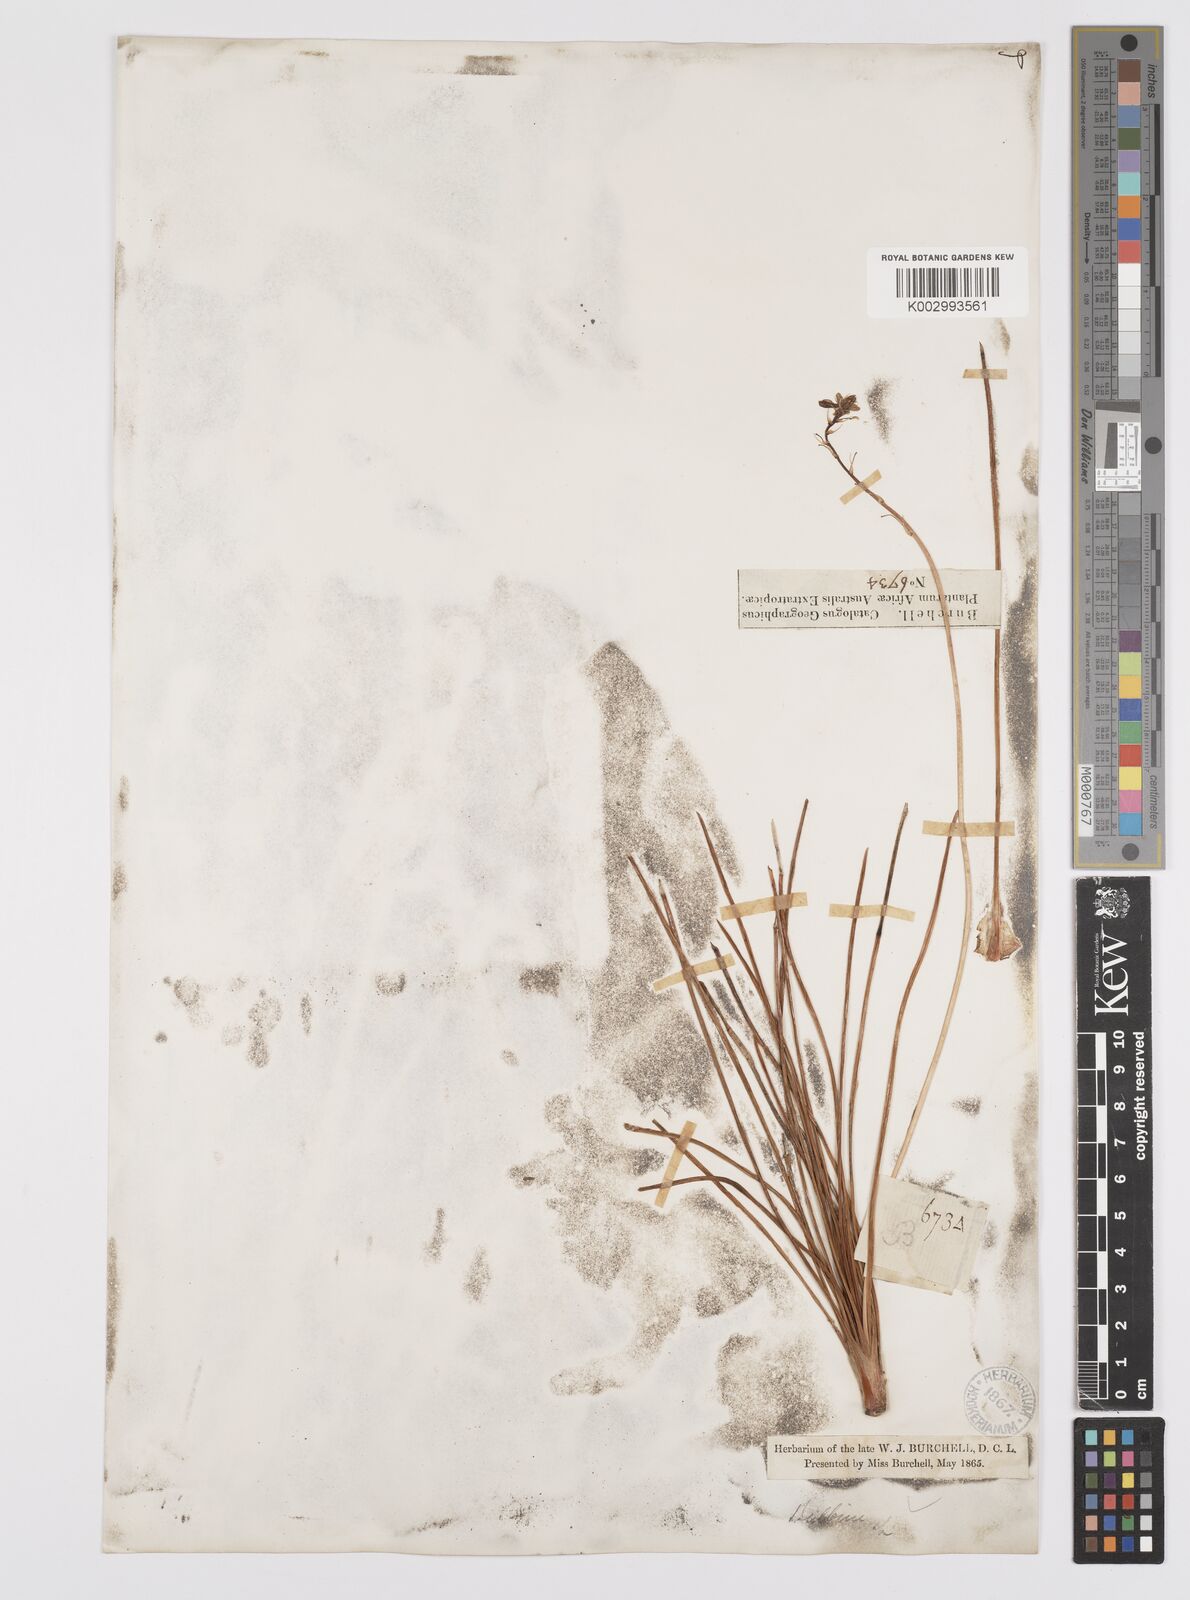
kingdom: Plantae
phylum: Tracheophyta
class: Liliopsida
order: Asparagales
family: Asphodelaceae
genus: Bulbine
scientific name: Bulbine asphodeloides
